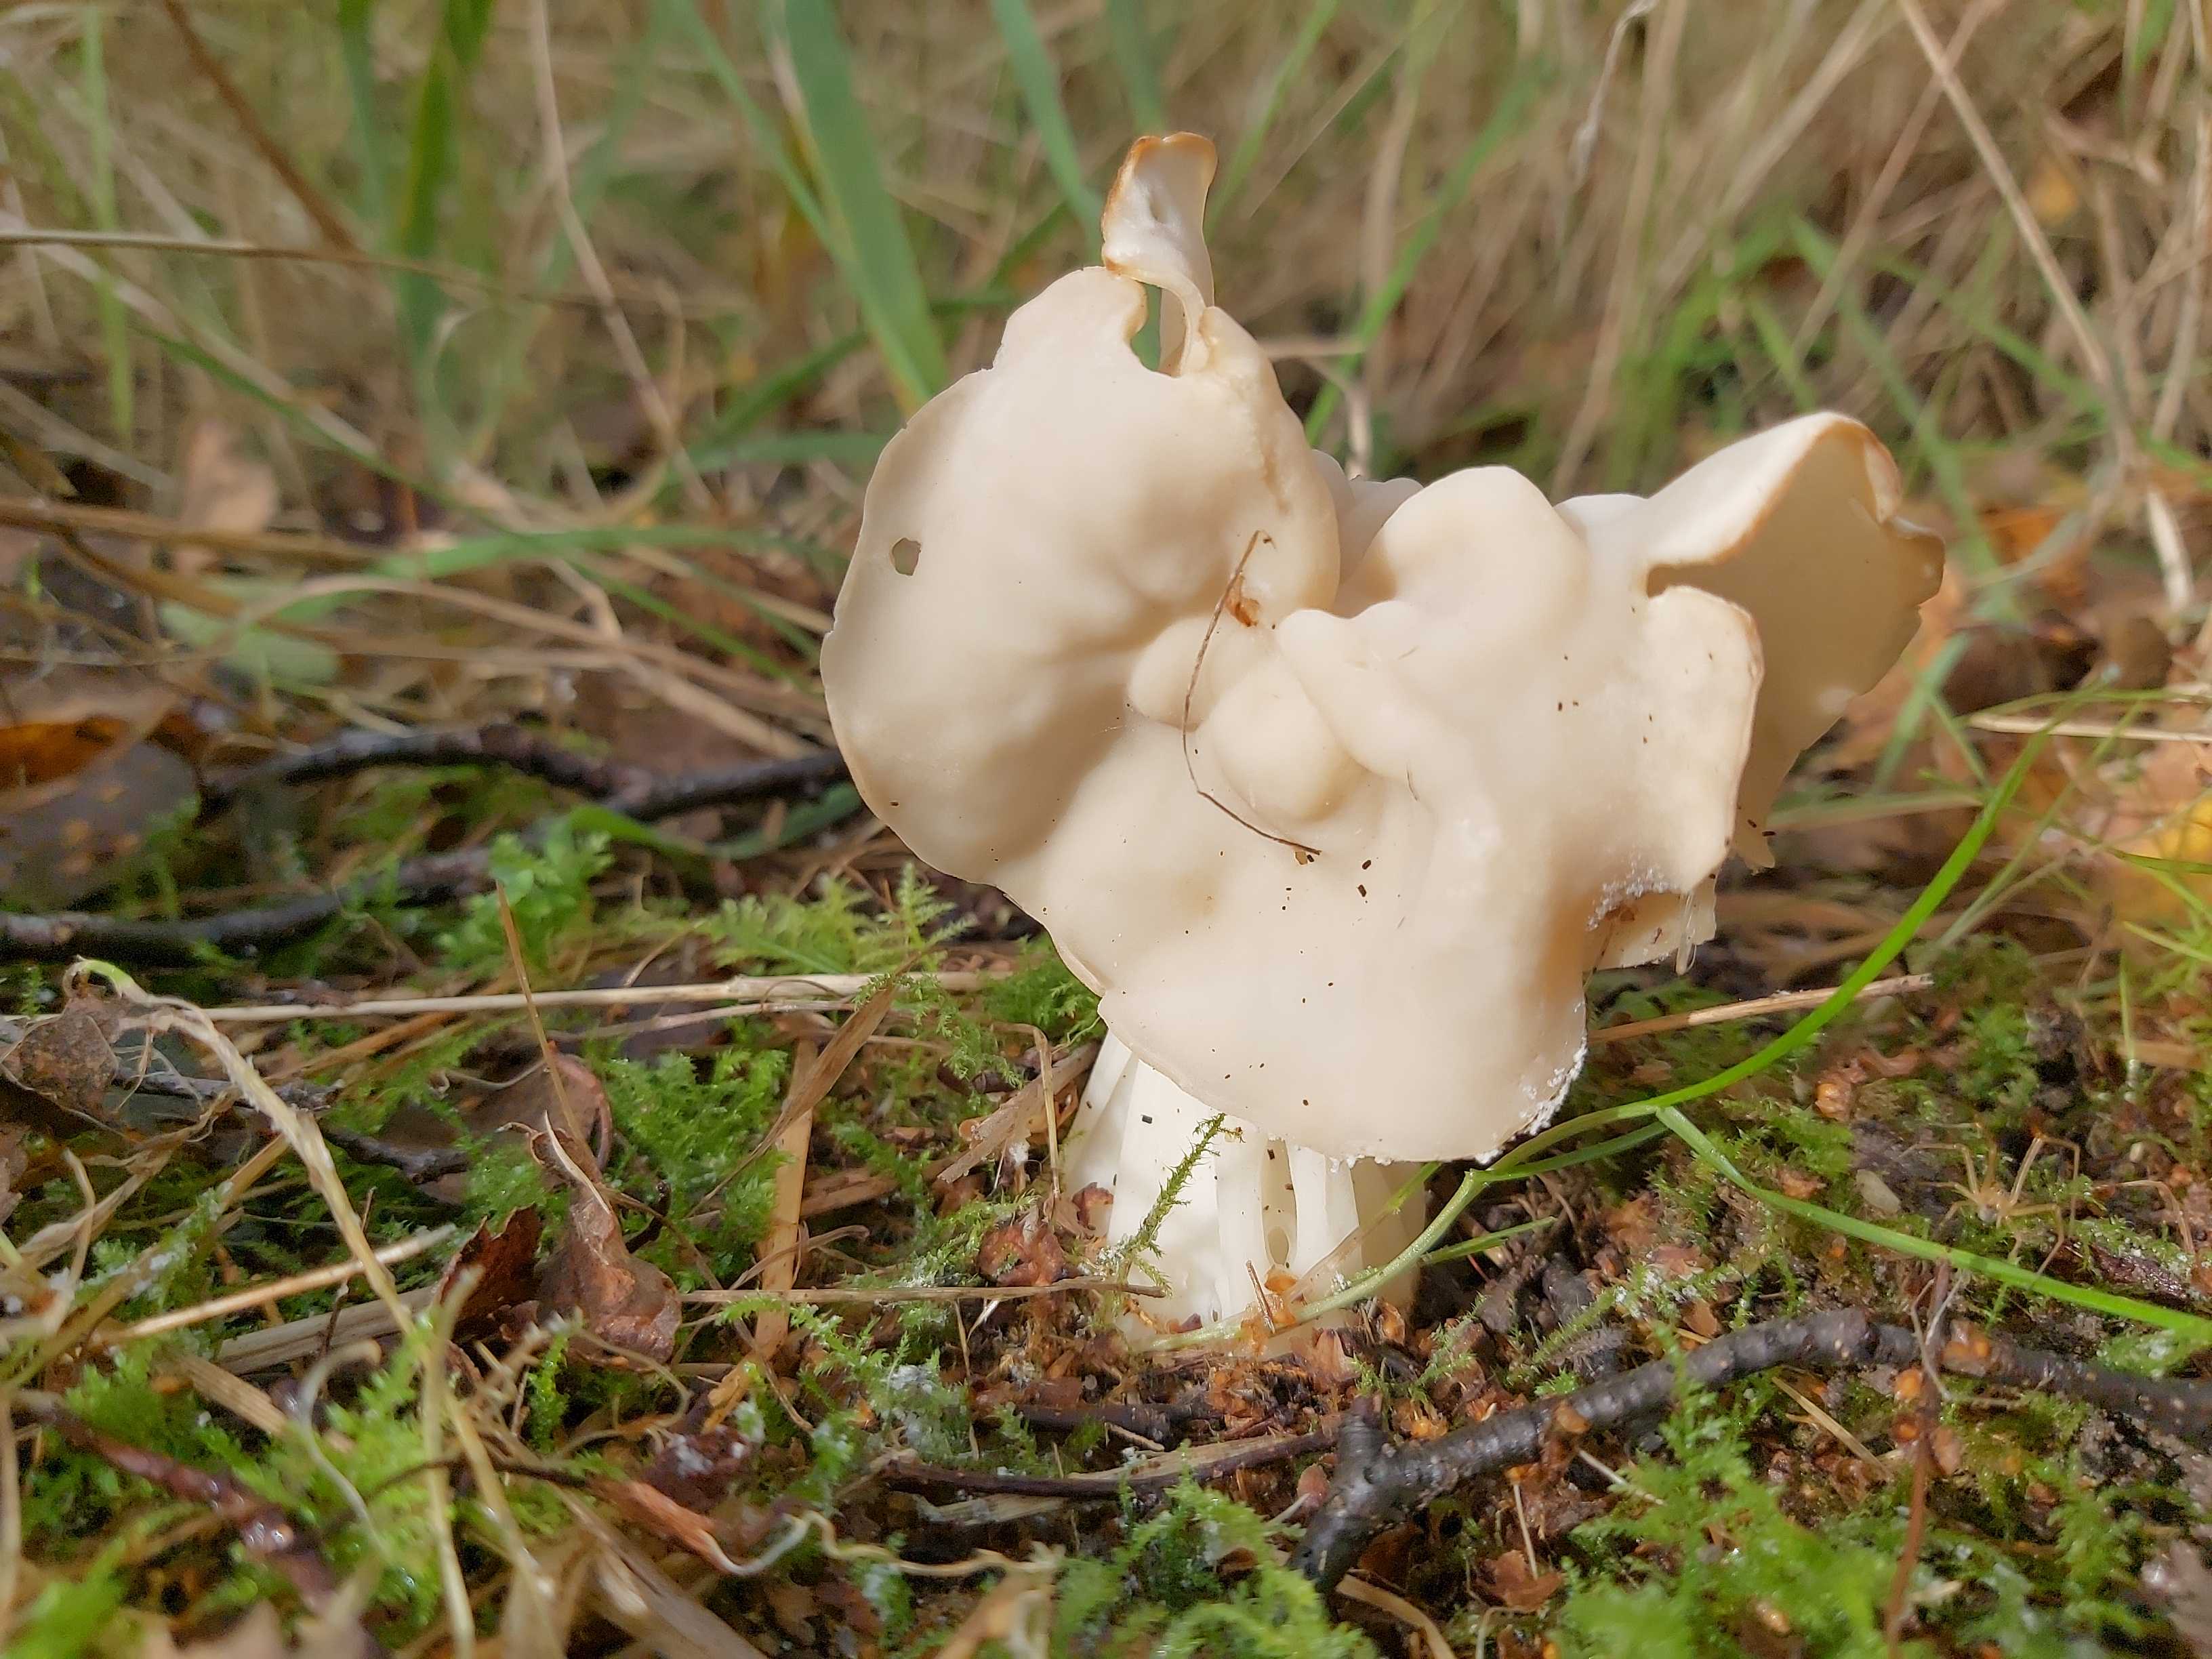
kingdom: Fungi
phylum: Ascomycota
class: Pezizomycetes
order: Pezizales
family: Helvellaceae
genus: Helvella
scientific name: Helvella crispa
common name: kruset foldhat
